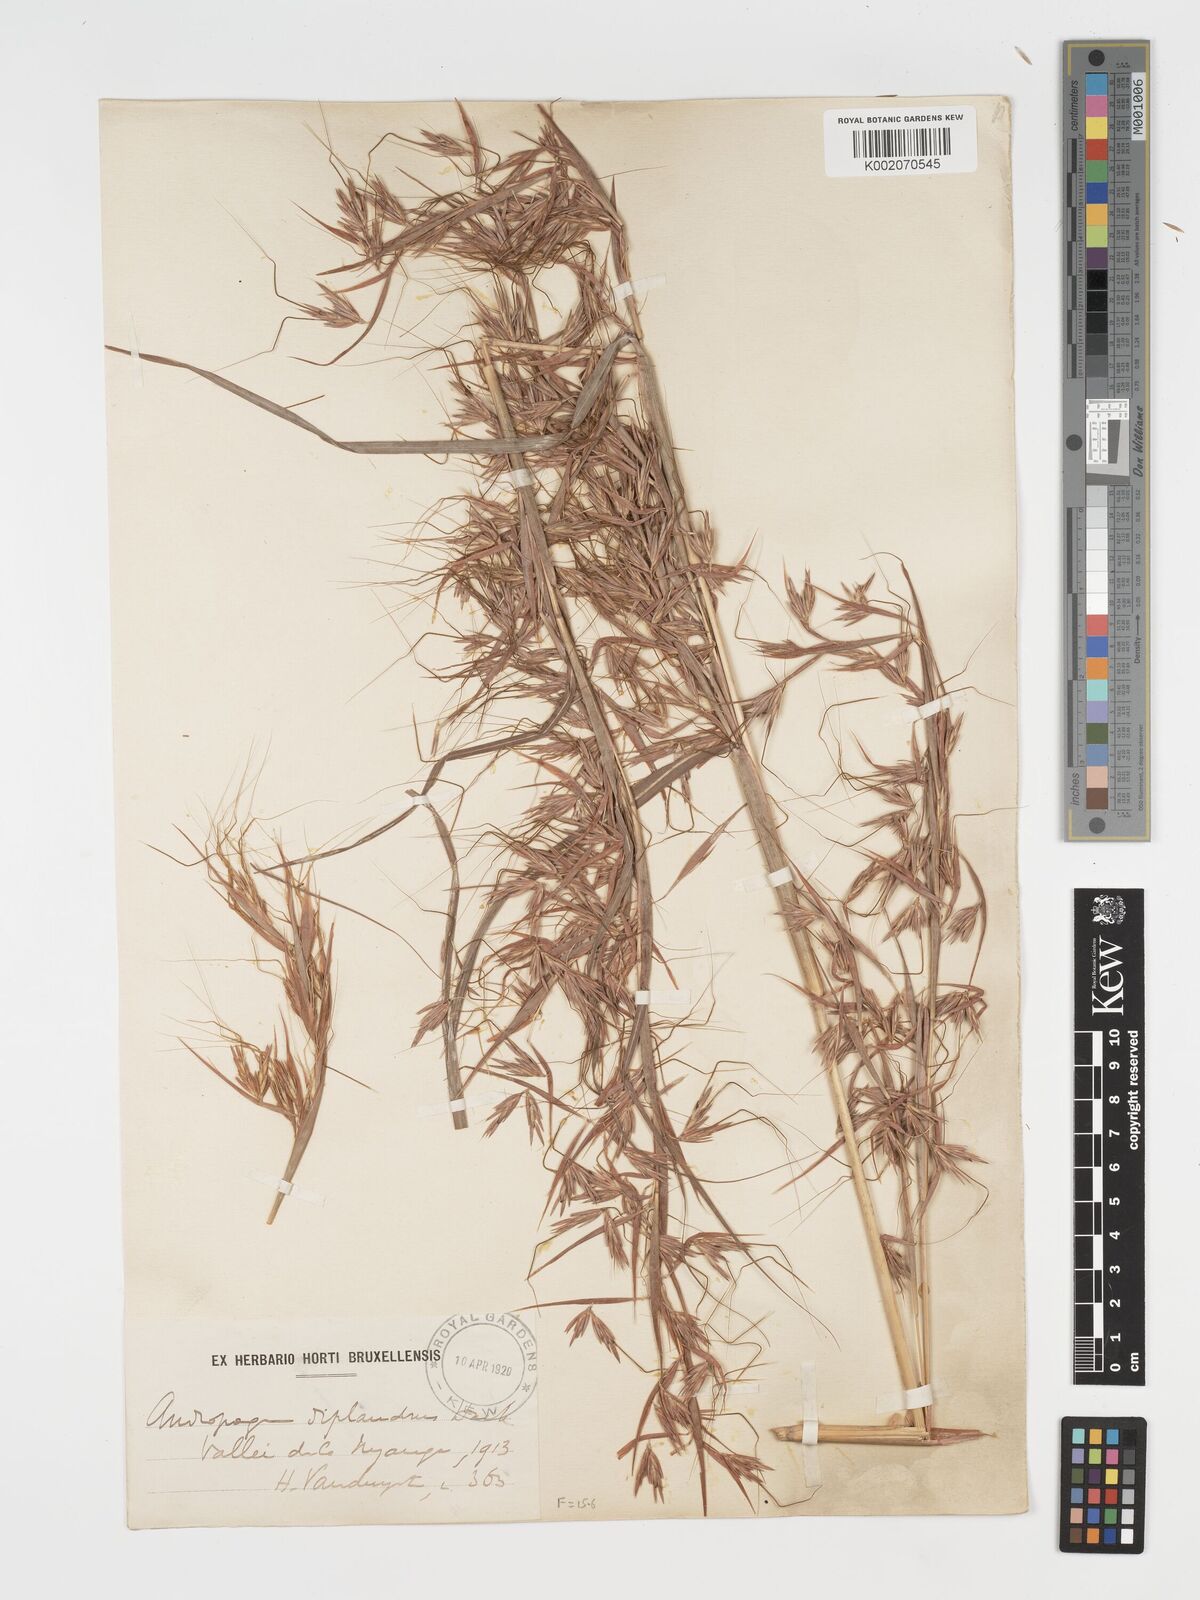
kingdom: Plantae
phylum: Tracheophyta
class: Liliopsida
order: Poales
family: Poaceae
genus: Hyparrhenia
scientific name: Hyparrhenia diplandra
